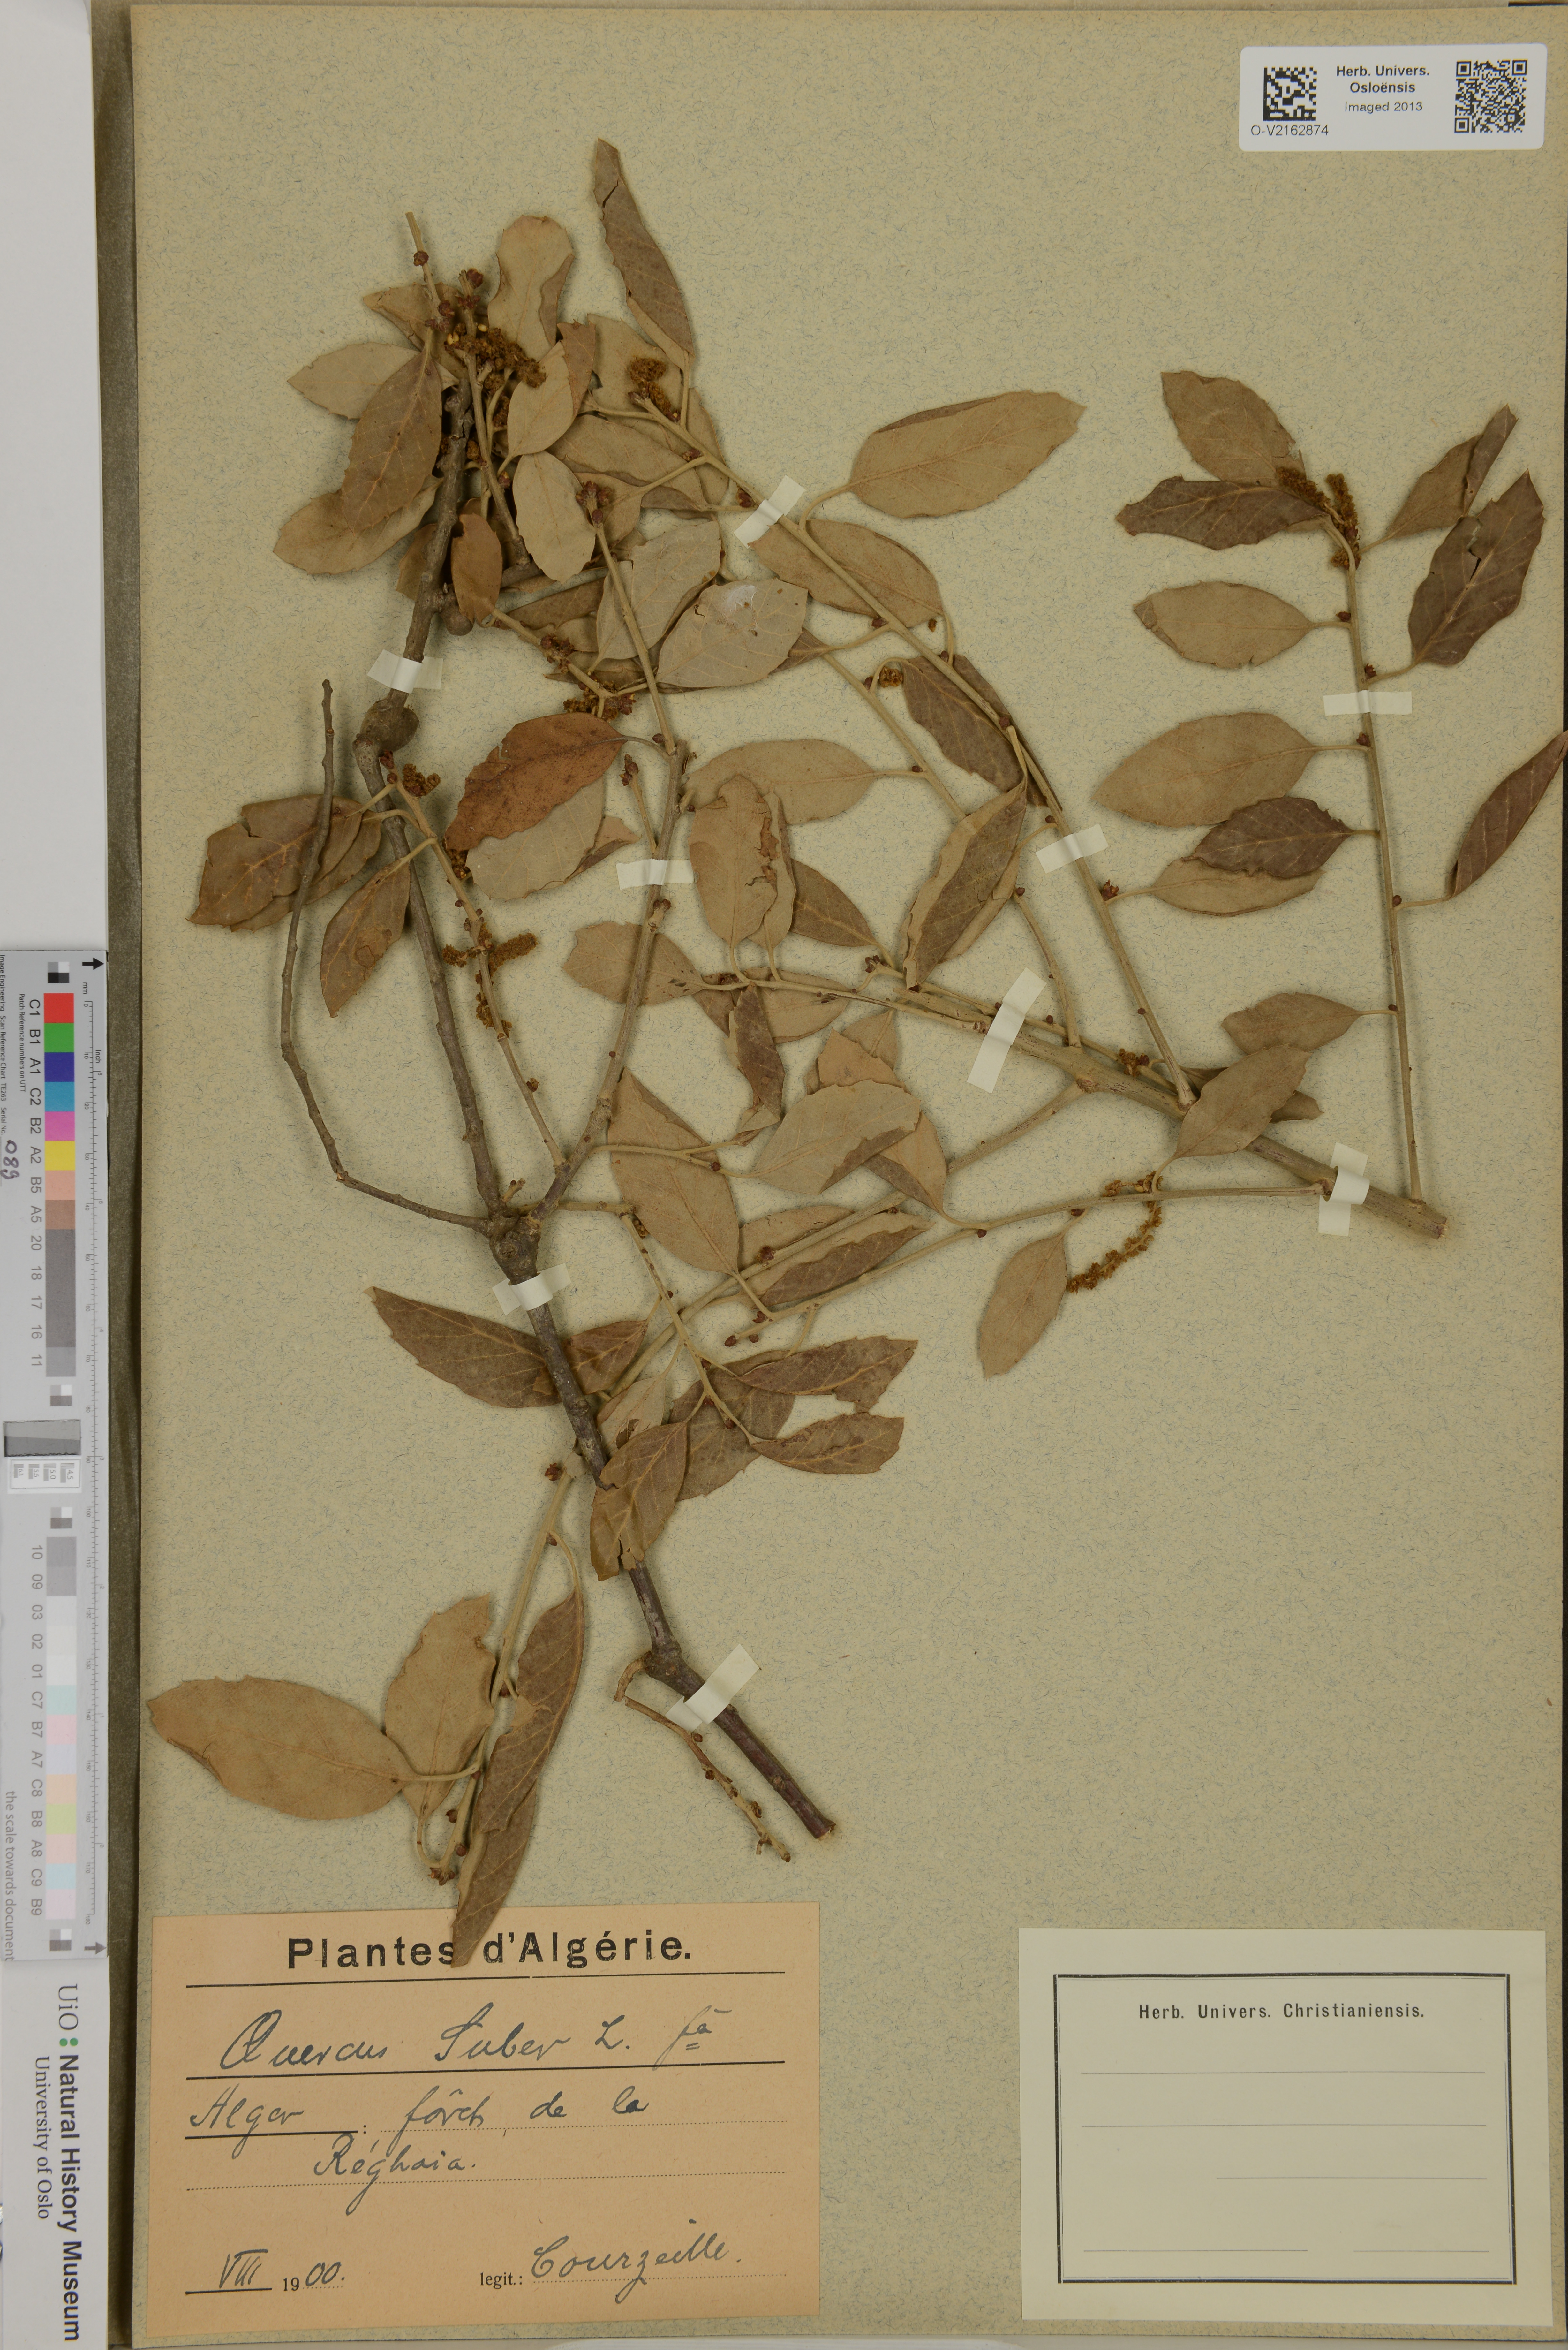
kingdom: Plantae
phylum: Tracheophyta
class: Magnoliopsida
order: Fagales
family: Fagaceae
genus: Quercus
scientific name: Quercus suber
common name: Cork oak
